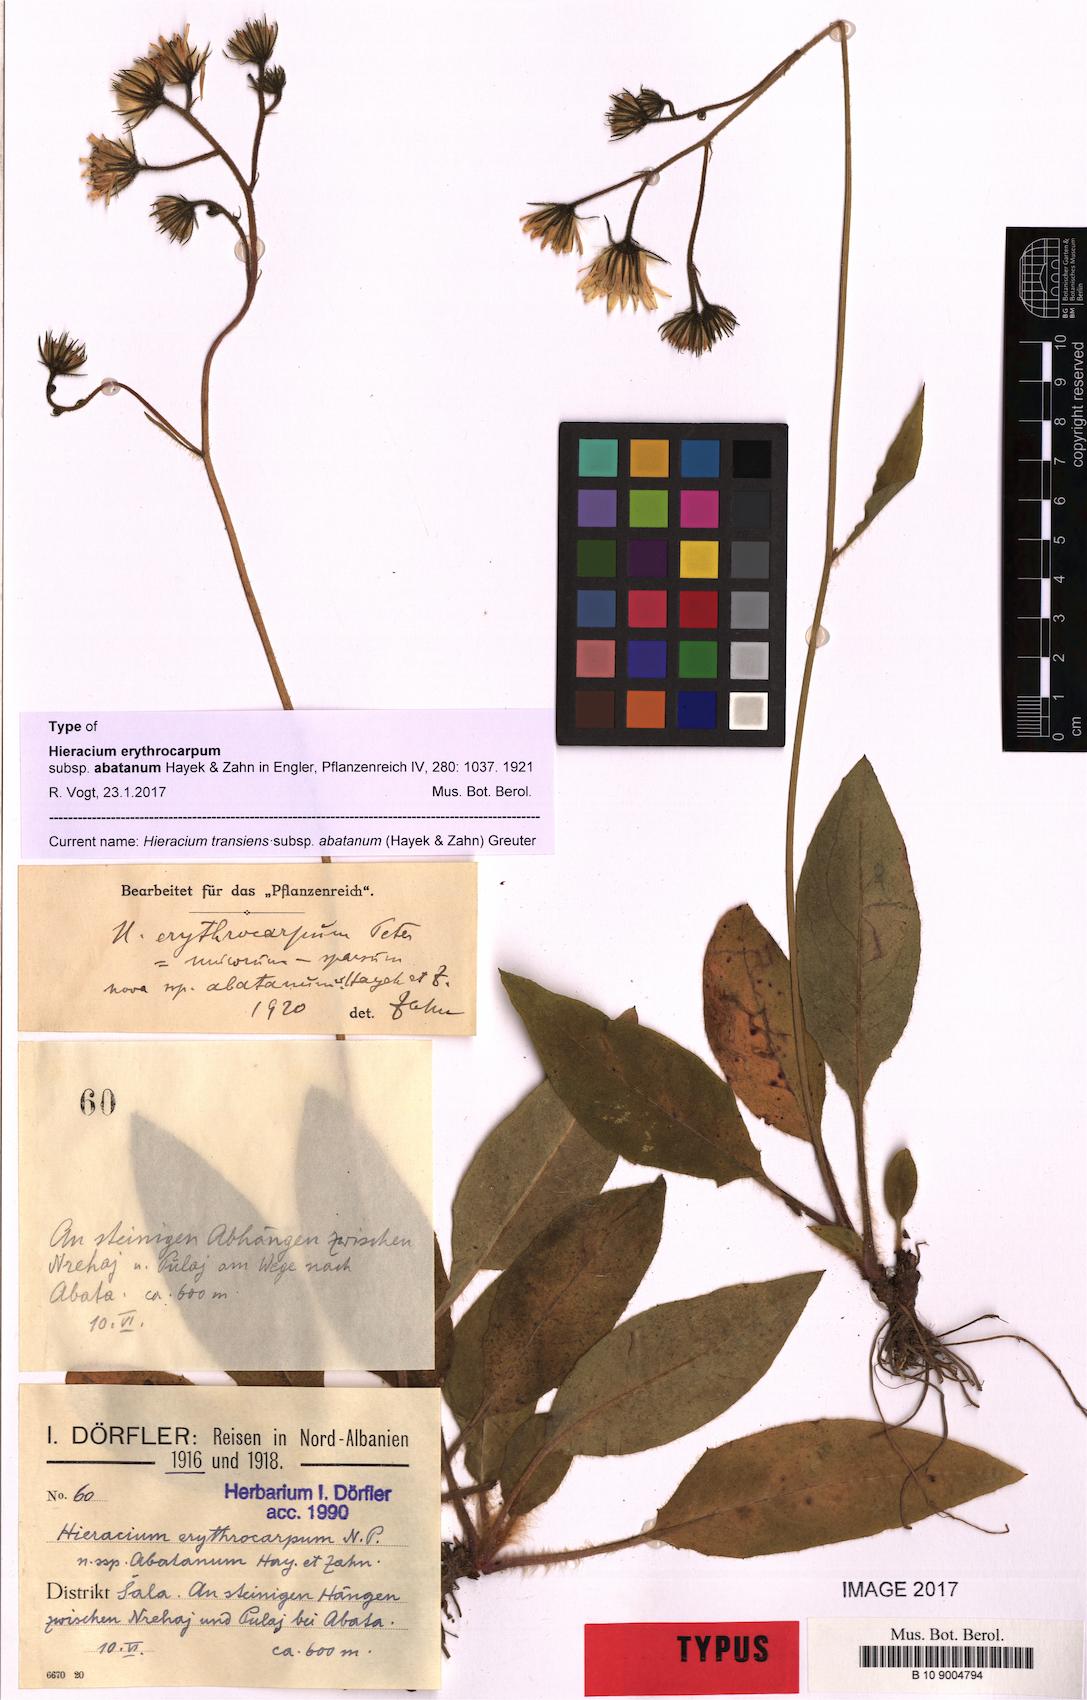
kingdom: Plantae
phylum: Tracheophyta
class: Magnoliopsida
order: Asterales
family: Asteraceae
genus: Hieracium
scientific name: Hieracium transiens
